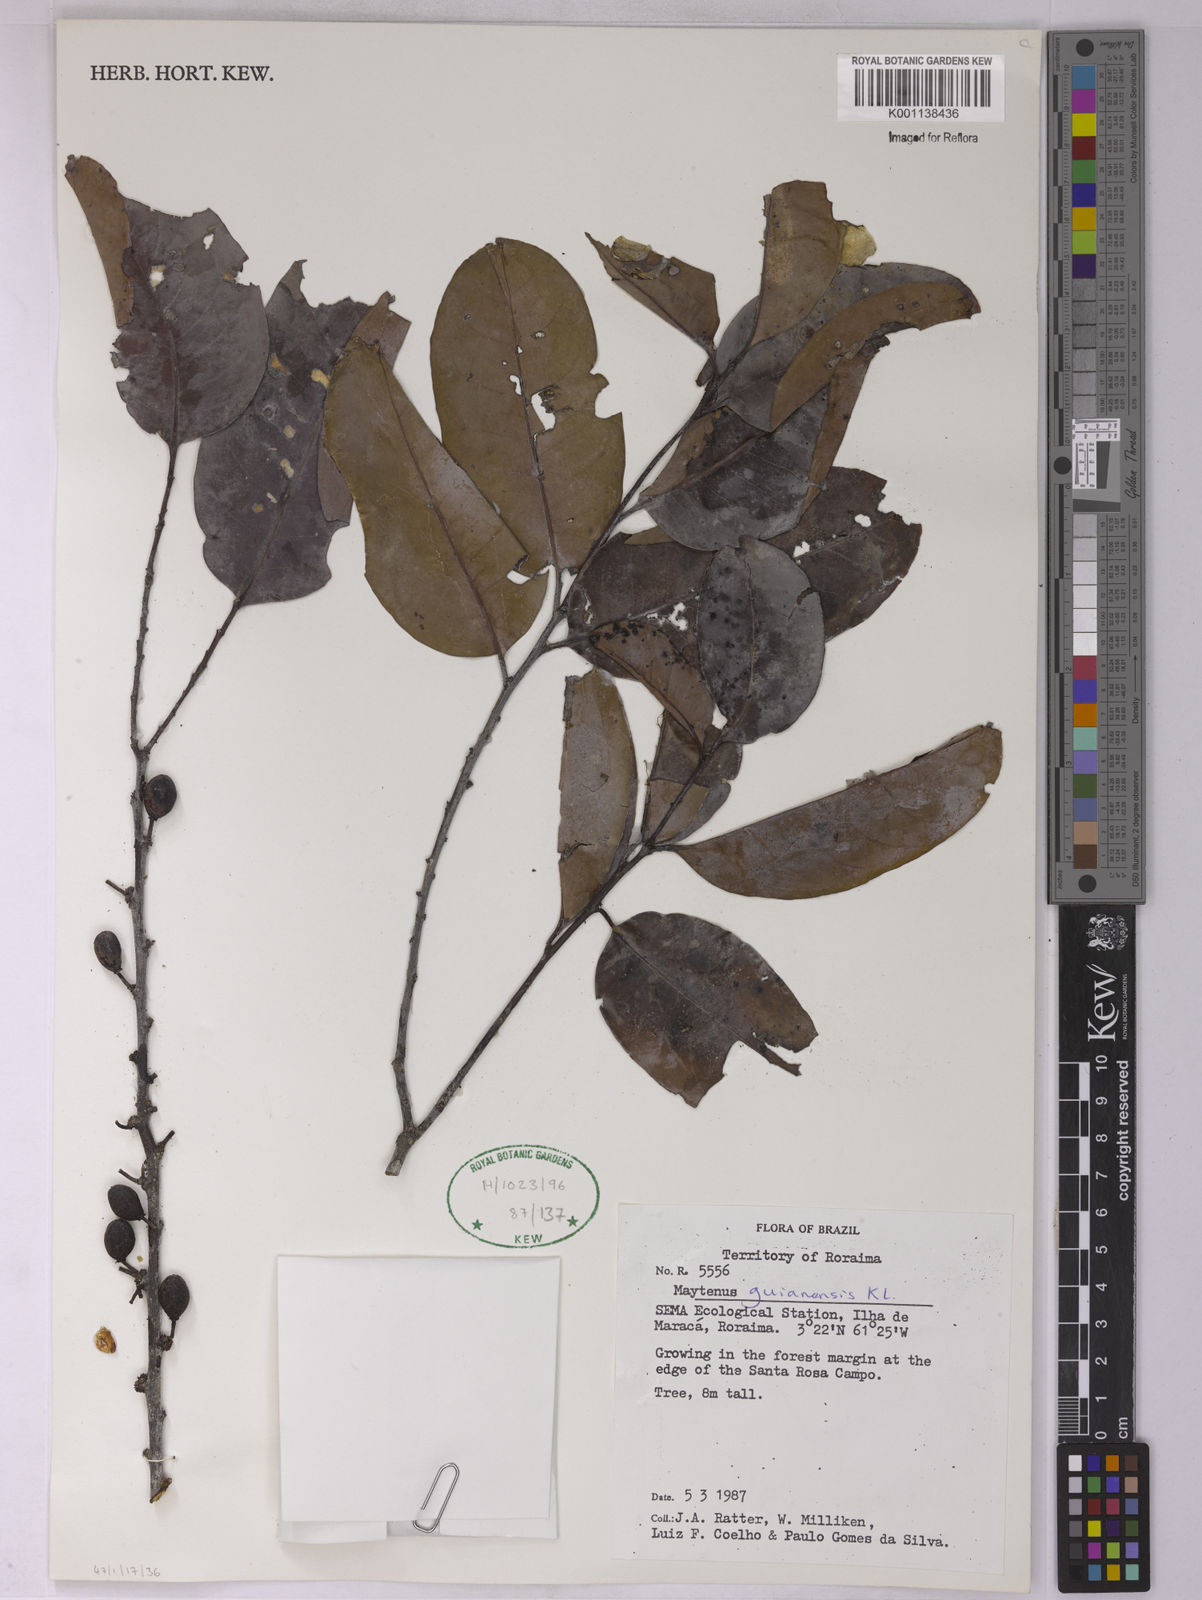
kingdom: Plantae
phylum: Tracheophyta
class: Magnoliopsida
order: Celastrales
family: Celastraceae
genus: Monteverdia
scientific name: Monteverdia guyanensis
